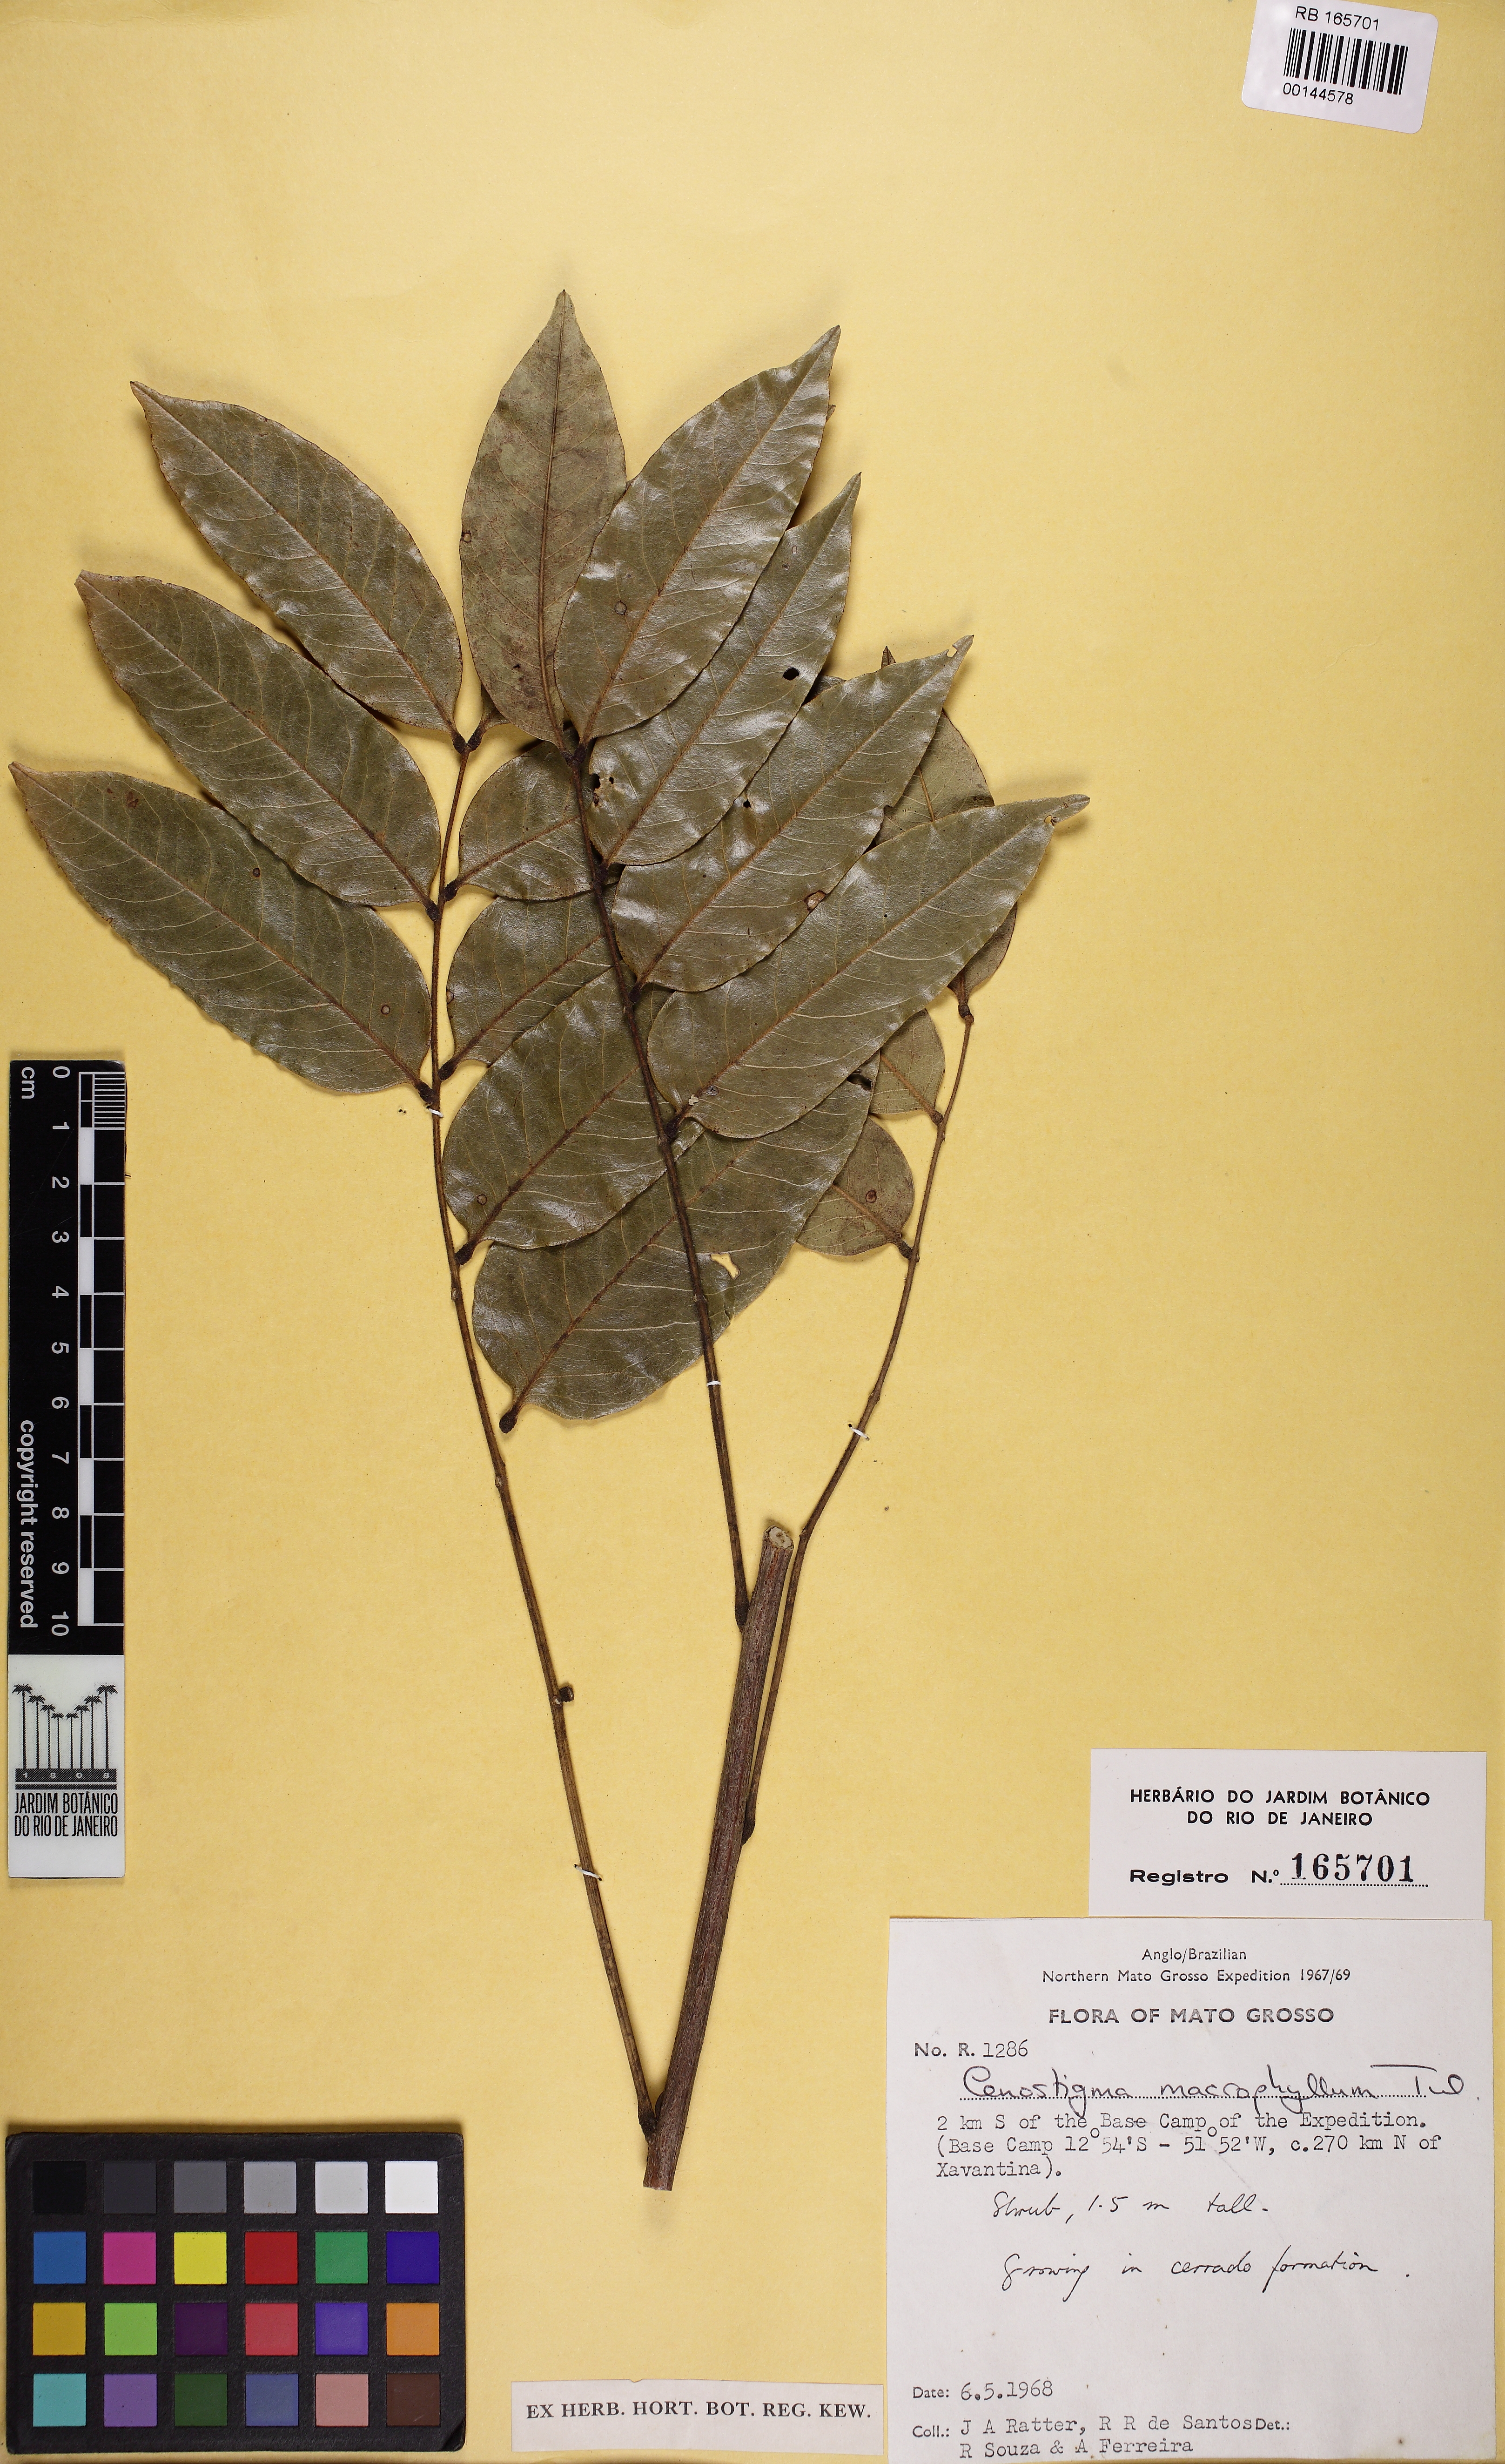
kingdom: Plantae
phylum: Tracheophyta
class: Magnoliopsida
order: Fabales
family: Fabaceae
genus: Cenostigma
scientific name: Cenostigma macrophyllum
